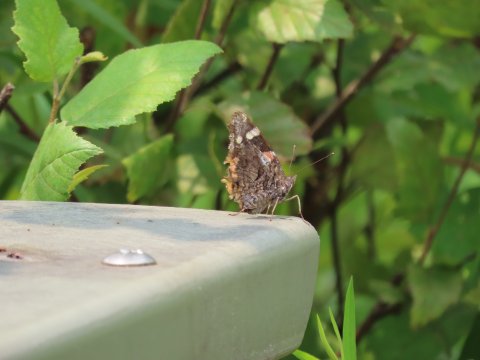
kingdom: Animalia
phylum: Arthropoda
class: Insecta
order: Lepidoptera
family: Nymphalidae
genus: Vanessa
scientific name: Vanessa atalanta
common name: Red Admiral
